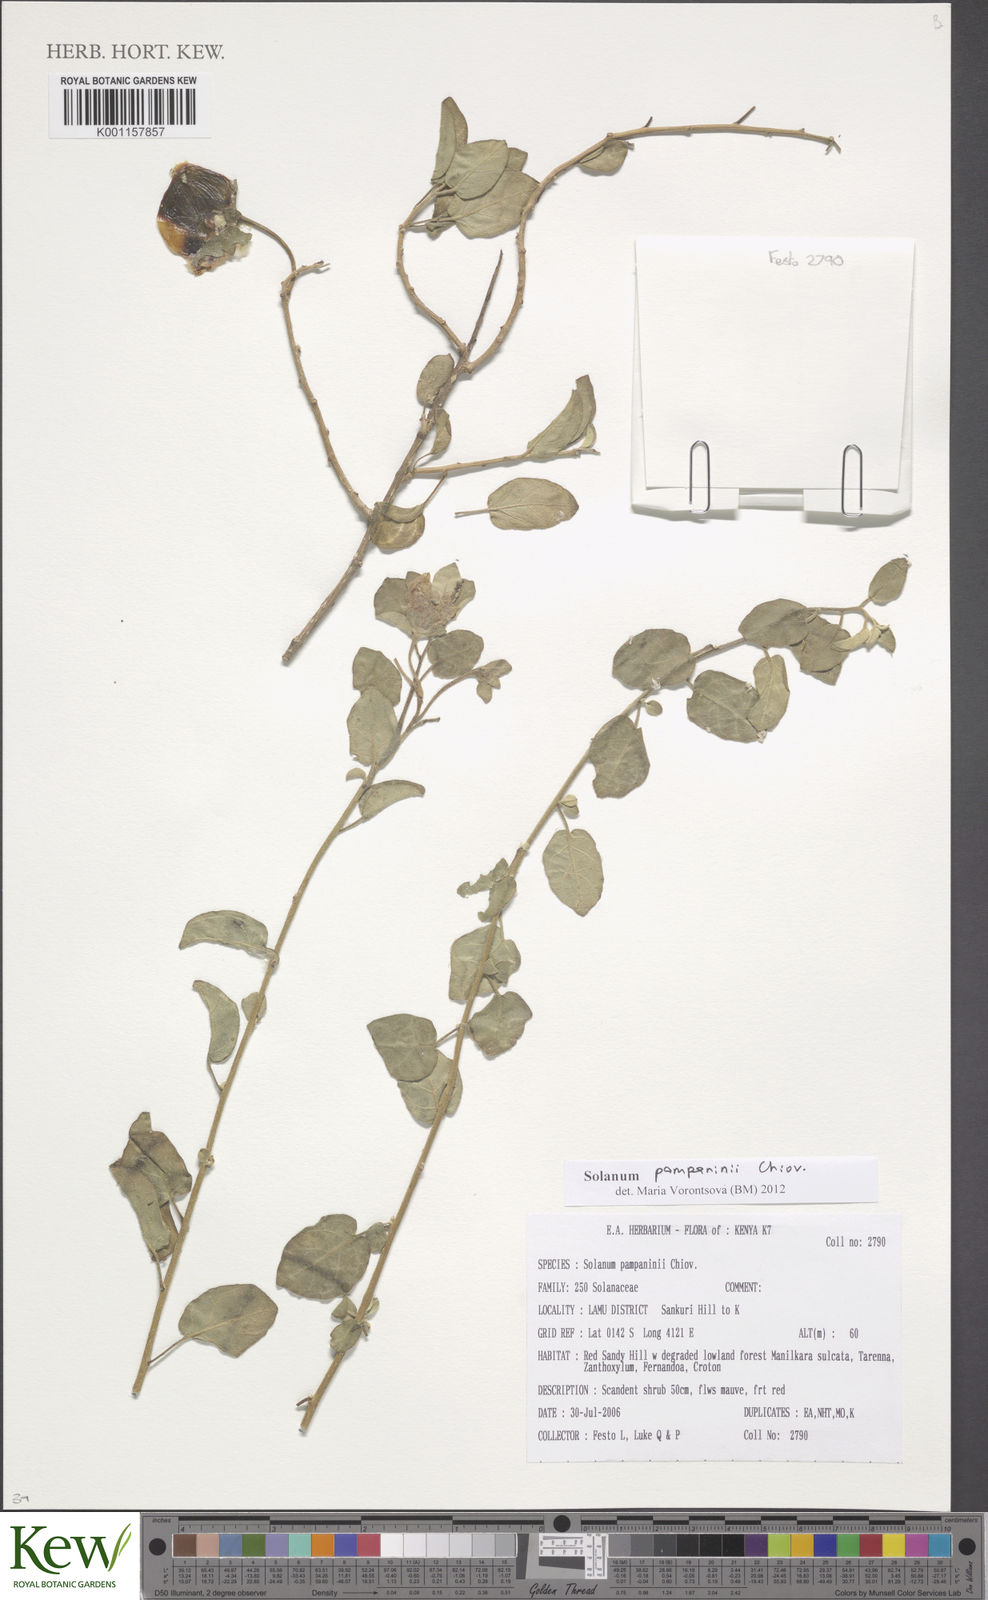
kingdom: Plantae
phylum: Tracheophyta
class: Magnoliopsida
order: Solanales
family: Solanaceae
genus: Solanum
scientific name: Solanum pampaninii
